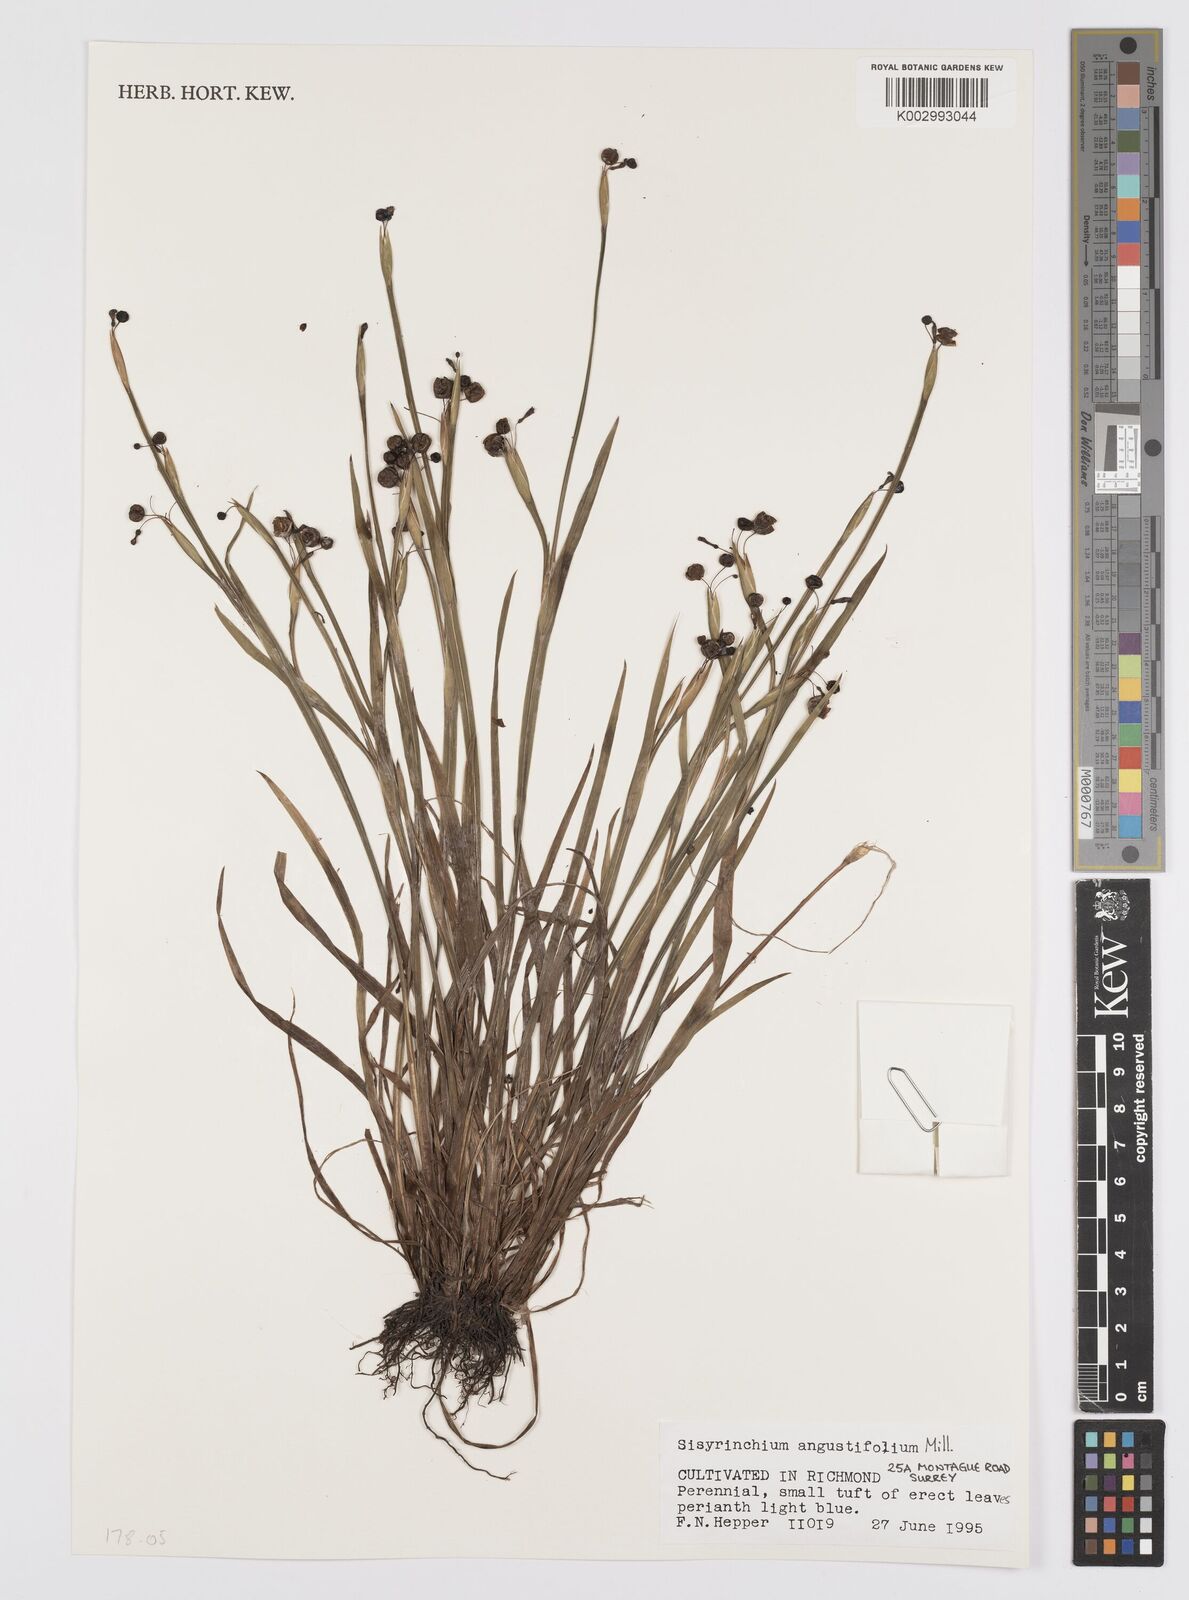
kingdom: Plantae
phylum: Tracheophyta
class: Liliopsida
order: Asparagales
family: Iridaceae
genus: Sisyrinchium
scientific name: Sisyrinchium angustifolium
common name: Narrow-leaf blue-eyed-grass
